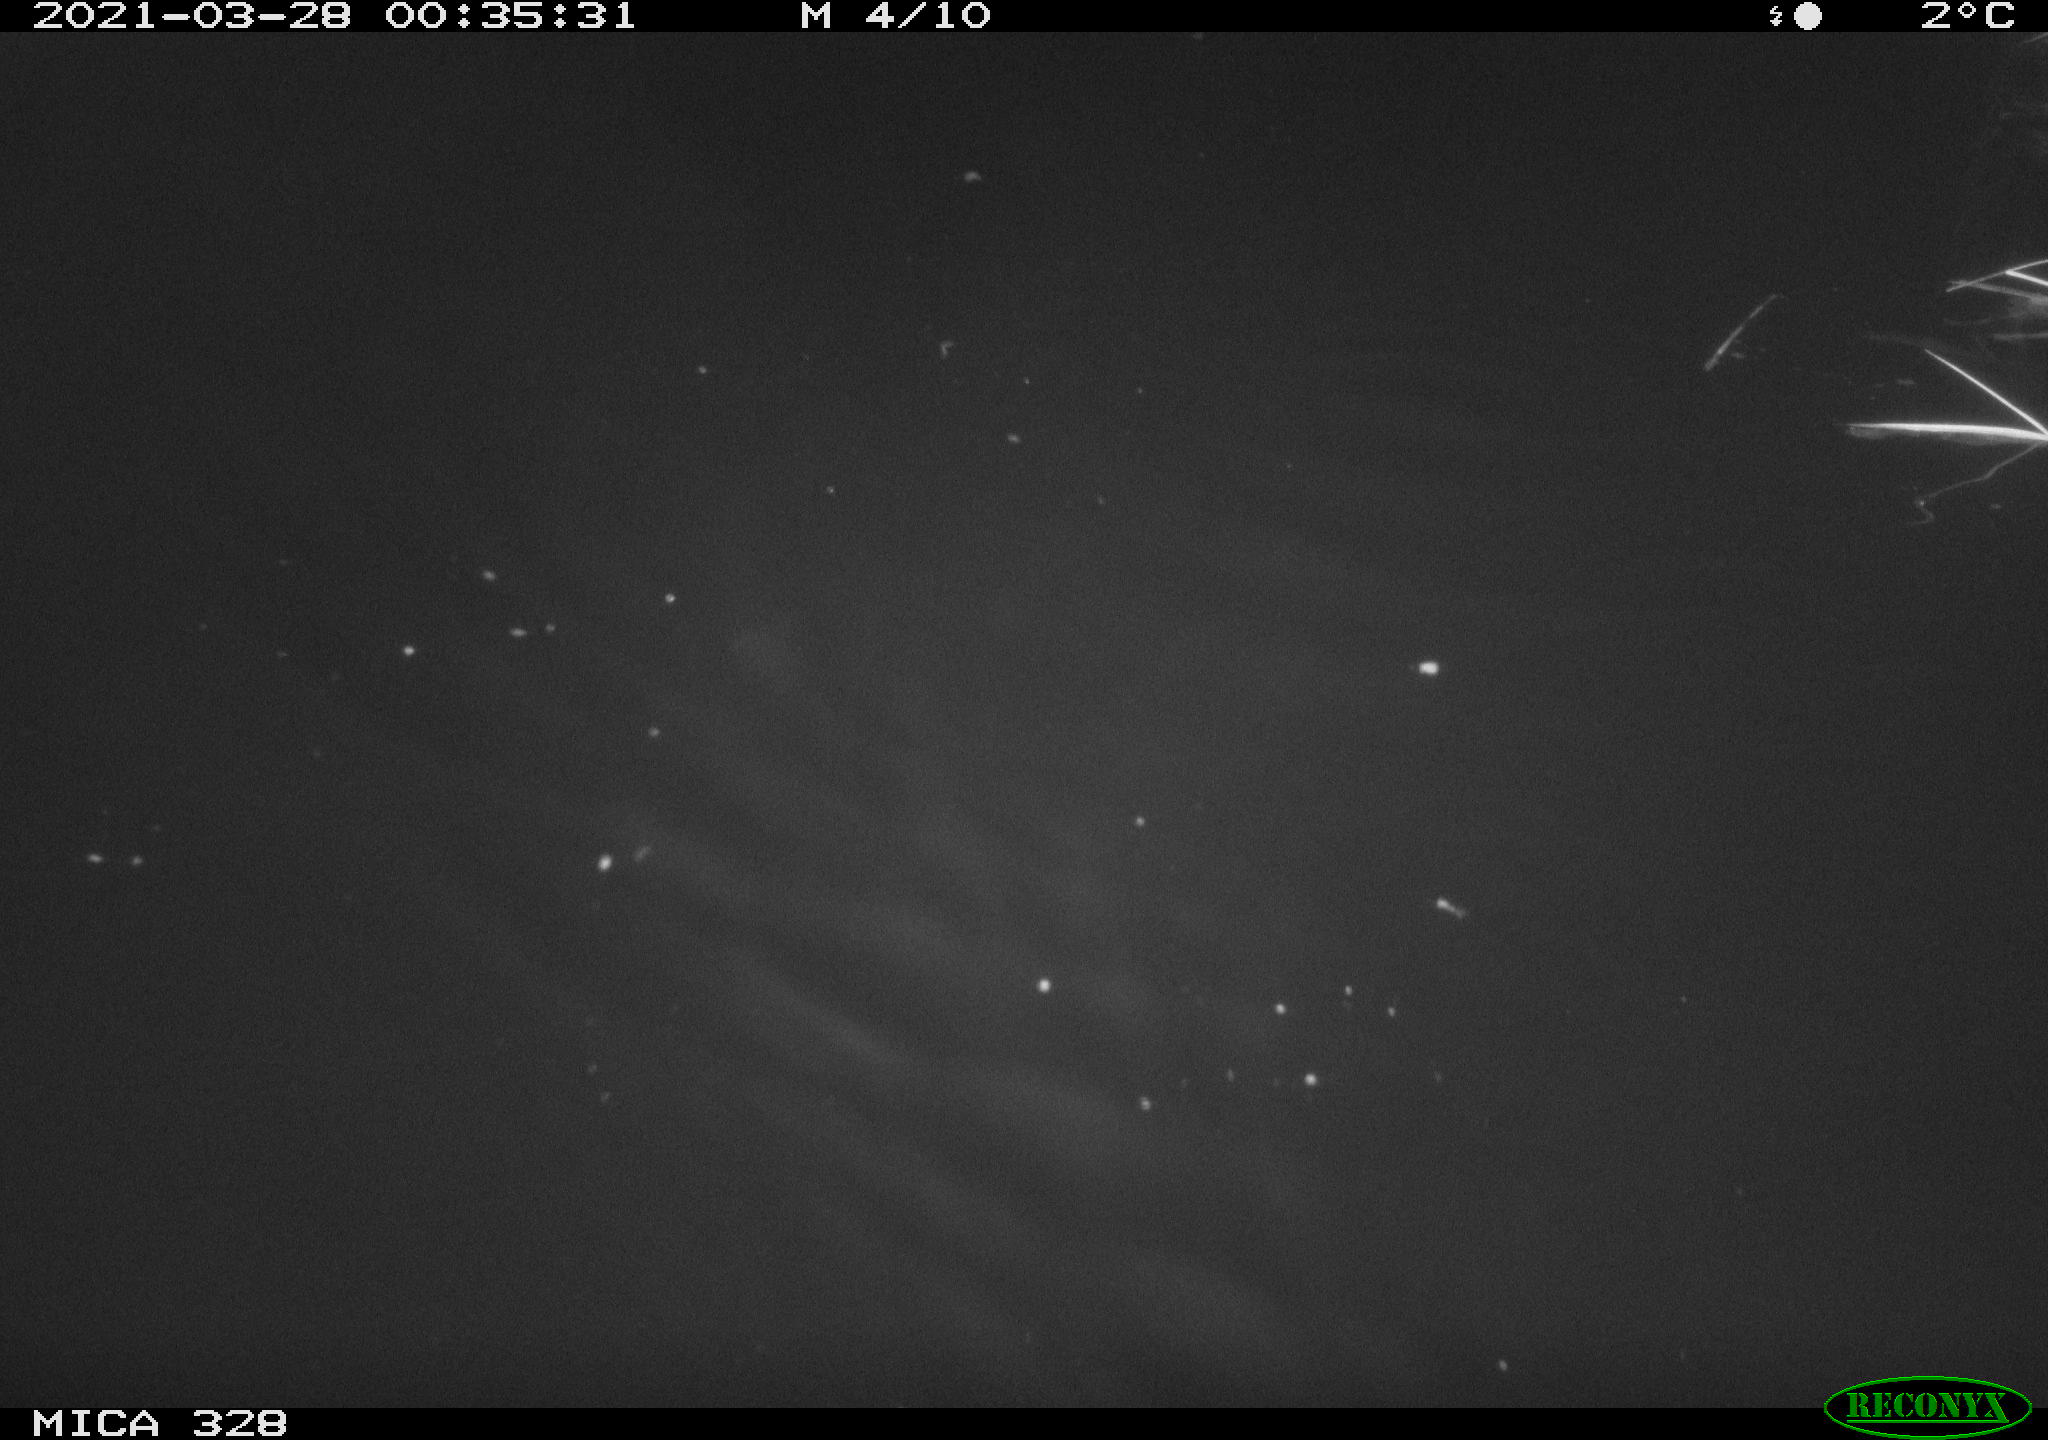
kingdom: Animalia
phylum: Chordata
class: Mammalia
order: Rodentia
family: Cricetidae
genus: Ondatra
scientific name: Ondatra zibethicus
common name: Muskrat
